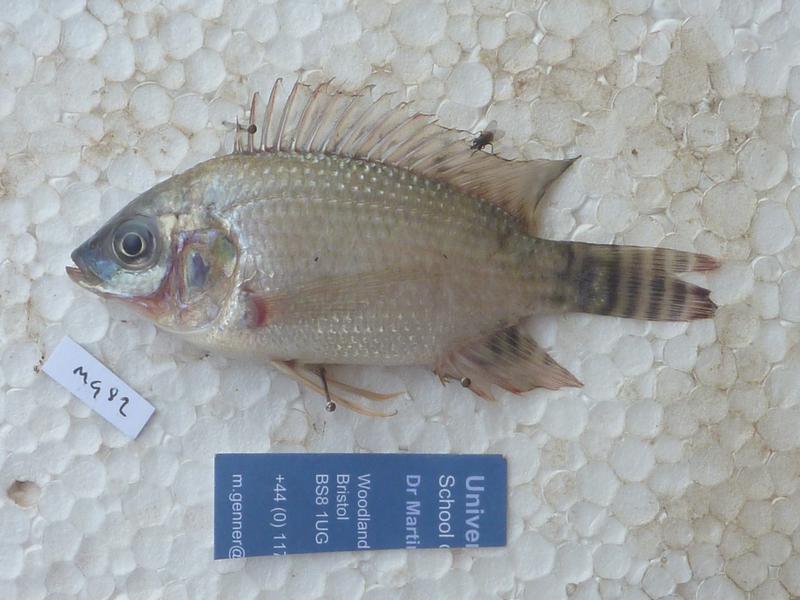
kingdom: Animalia
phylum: Chordata
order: Perciformes
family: Cichlidae
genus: Oreochromis
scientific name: Oreochromis niloticus
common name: Nile tilapia
